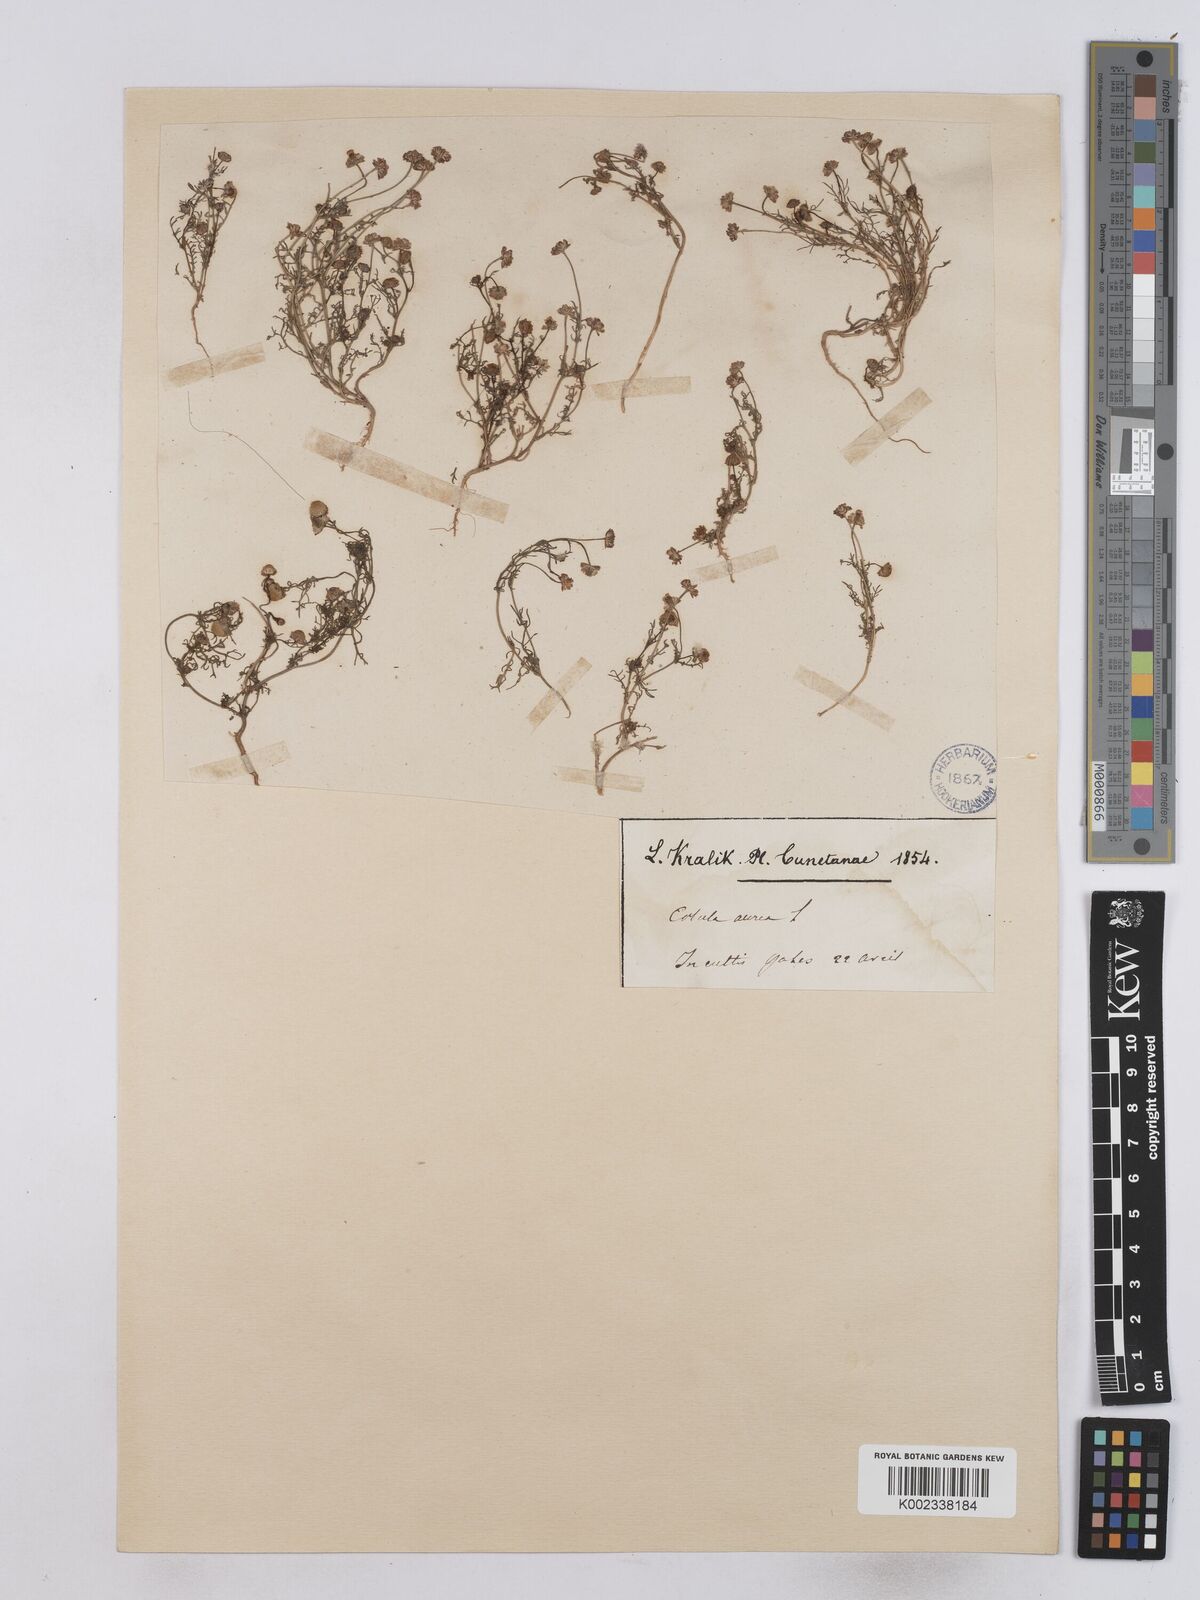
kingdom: Plantae
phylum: Tracheophyta
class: Magnoliopsida
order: Asterales
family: Asteraceae
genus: Matricaria
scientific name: Matricaria aurea
